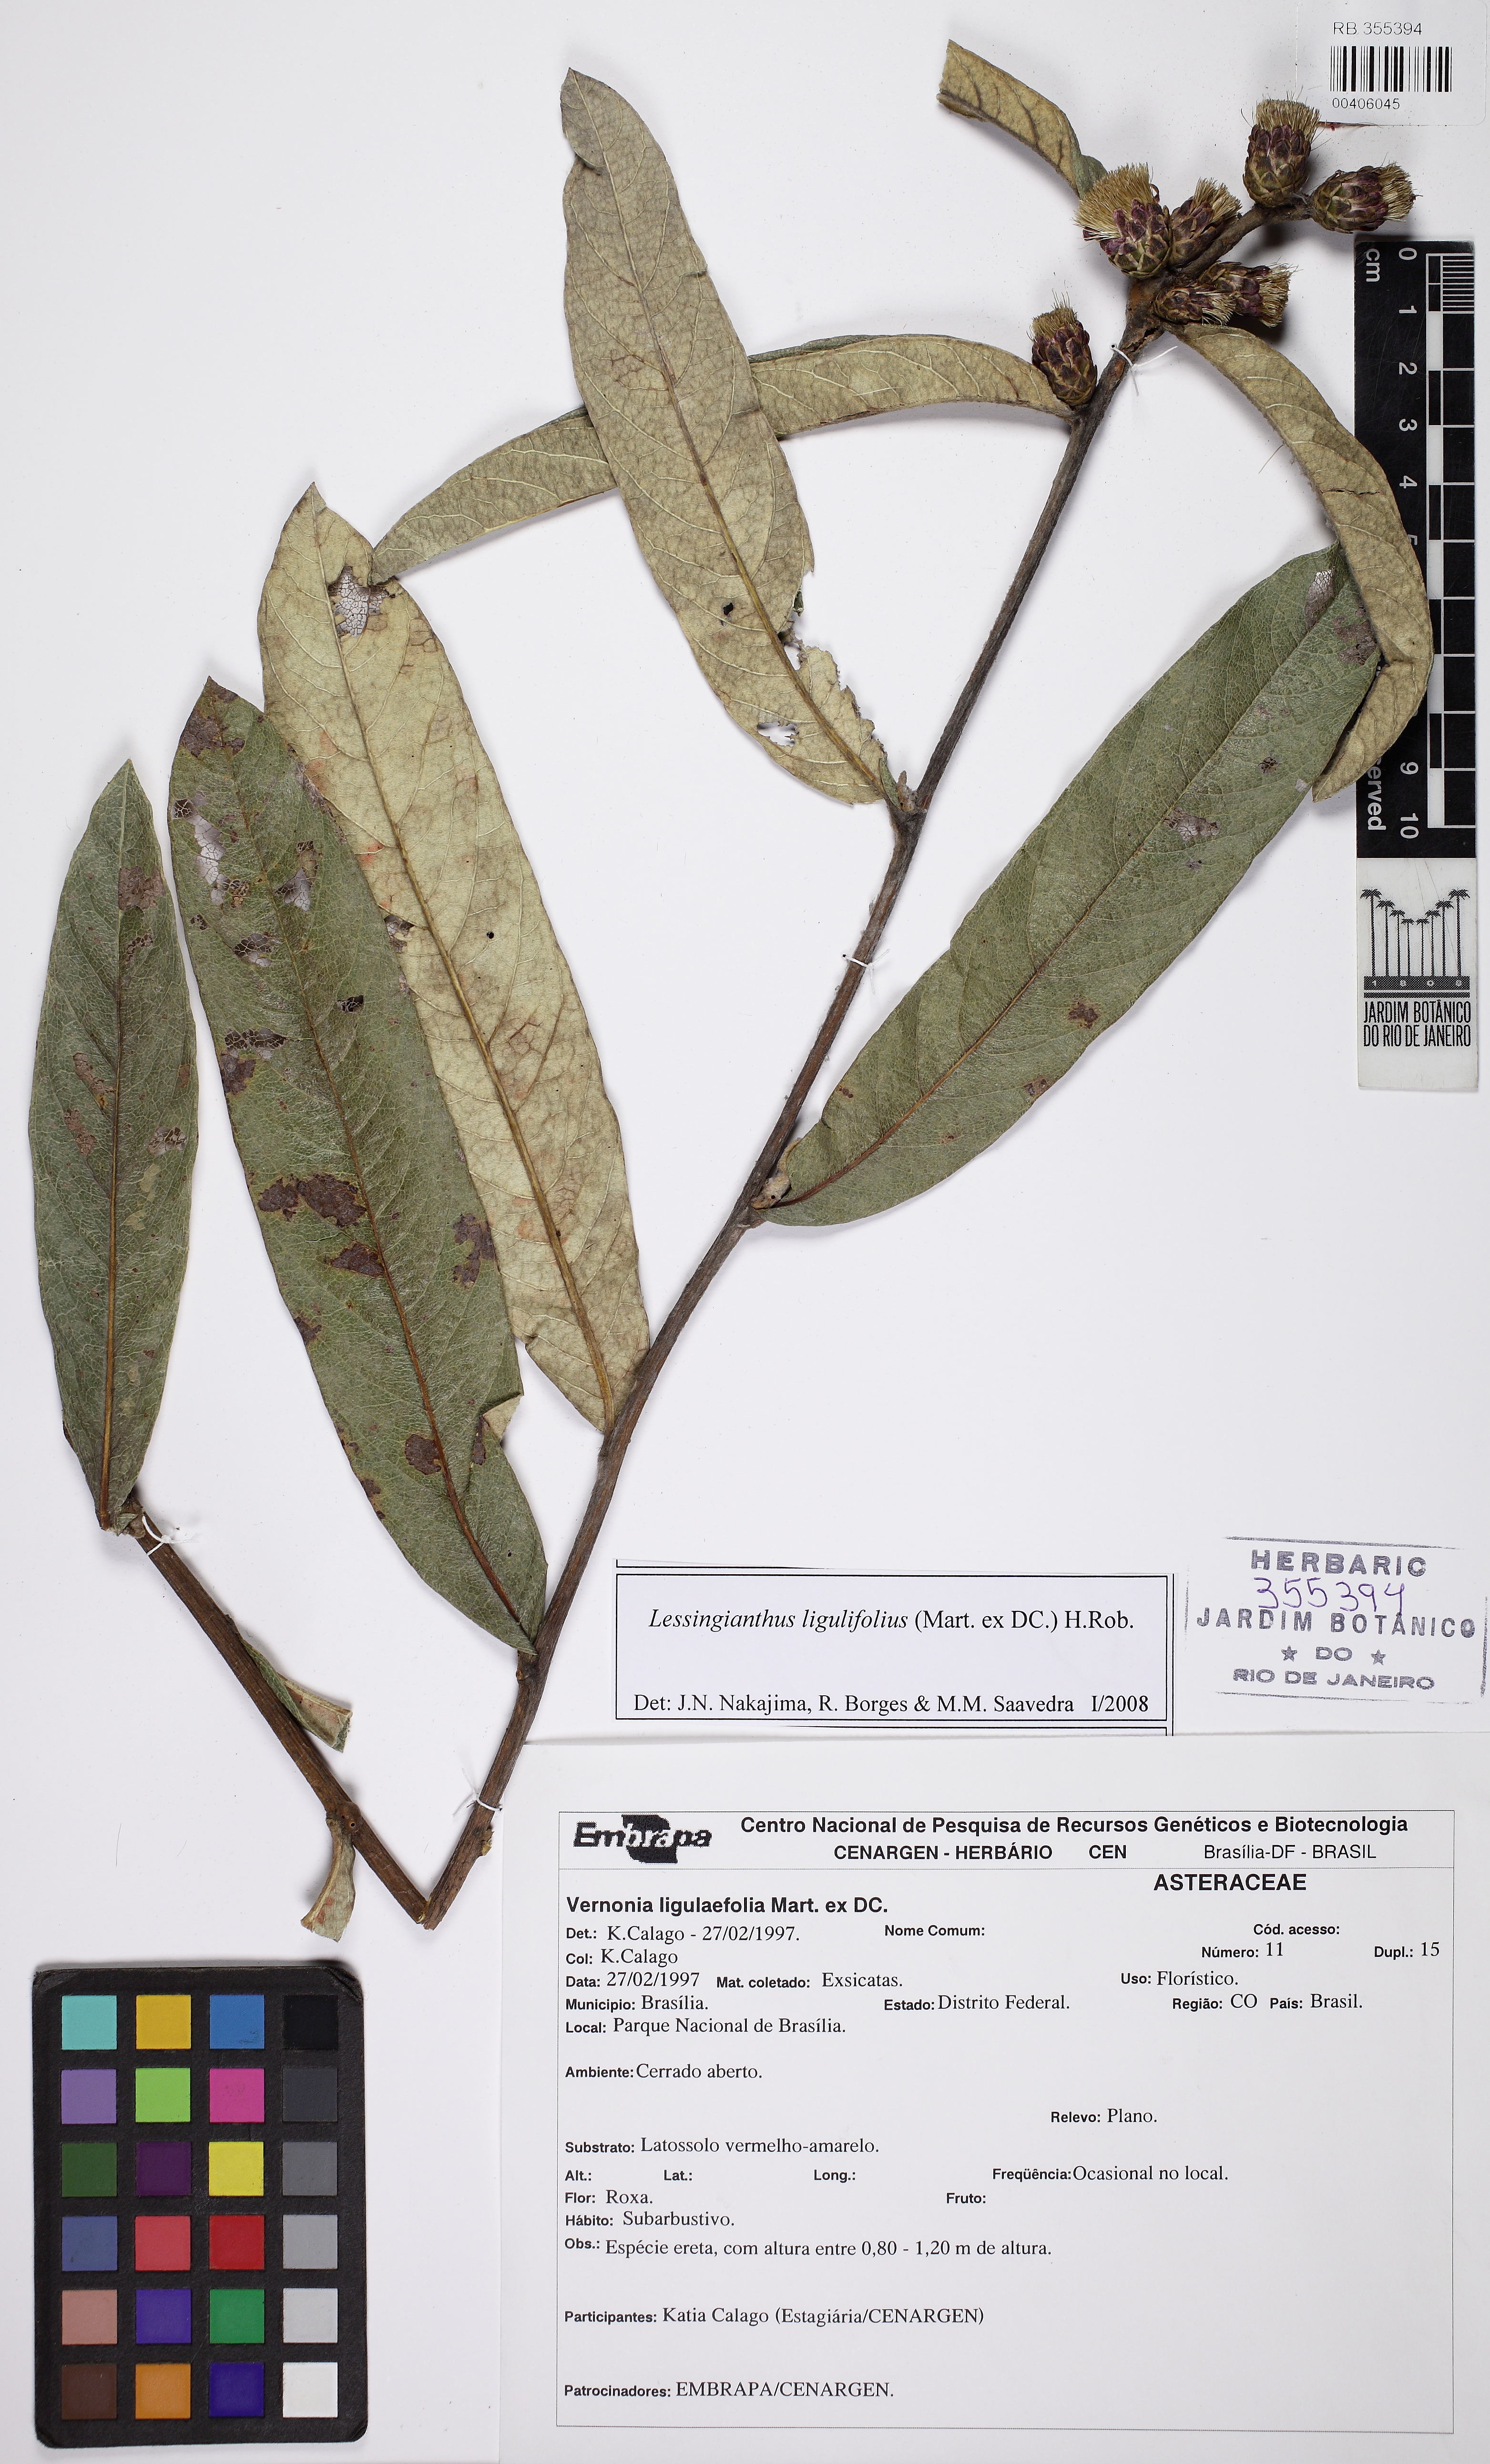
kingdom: Plantae
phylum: Tracheophyta
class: Magnoliopsida
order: Asterales
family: Asteraceae
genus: Lessingianthus
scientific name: Lessingianthus ligulifolius
